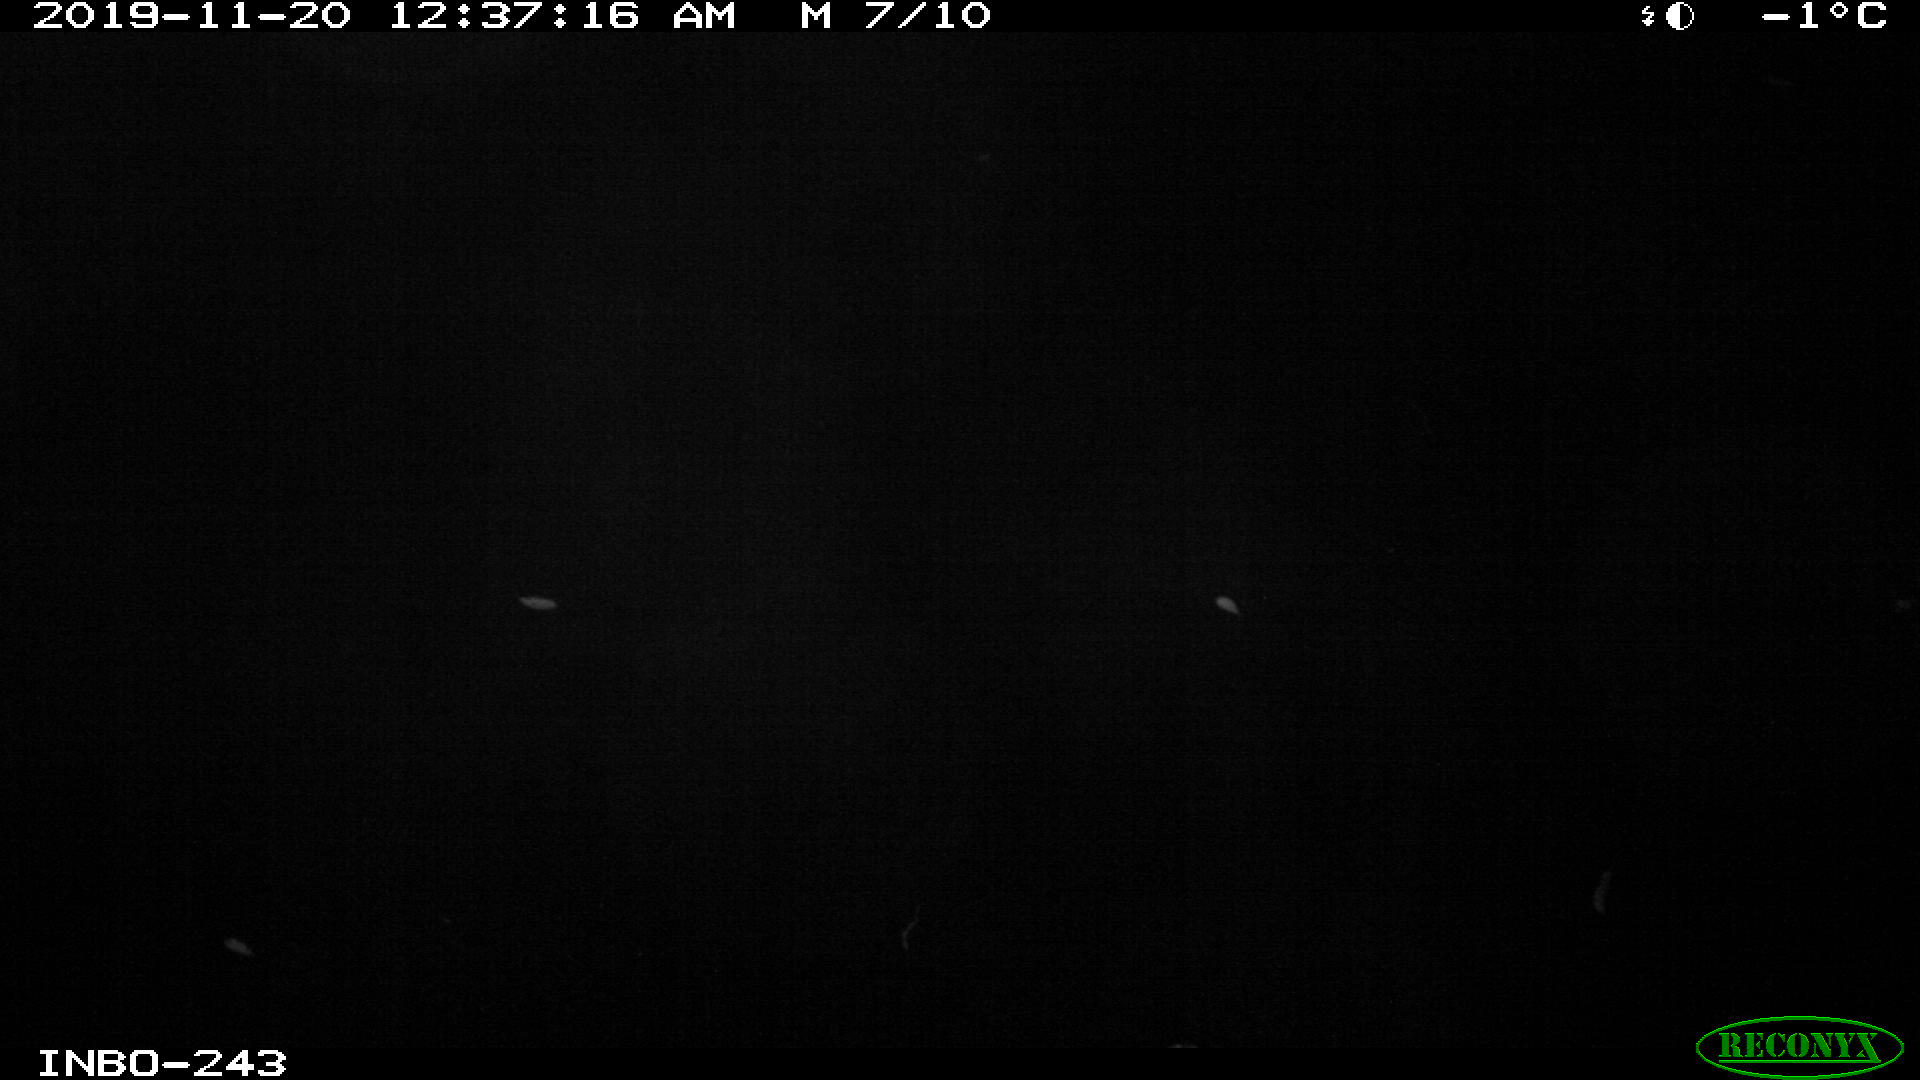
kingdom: Animalia
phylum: Chordata
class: Aves
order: Anseriformes
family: Anatidae
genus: Anas
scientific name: Anas platyrhynchos
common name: Mallard
